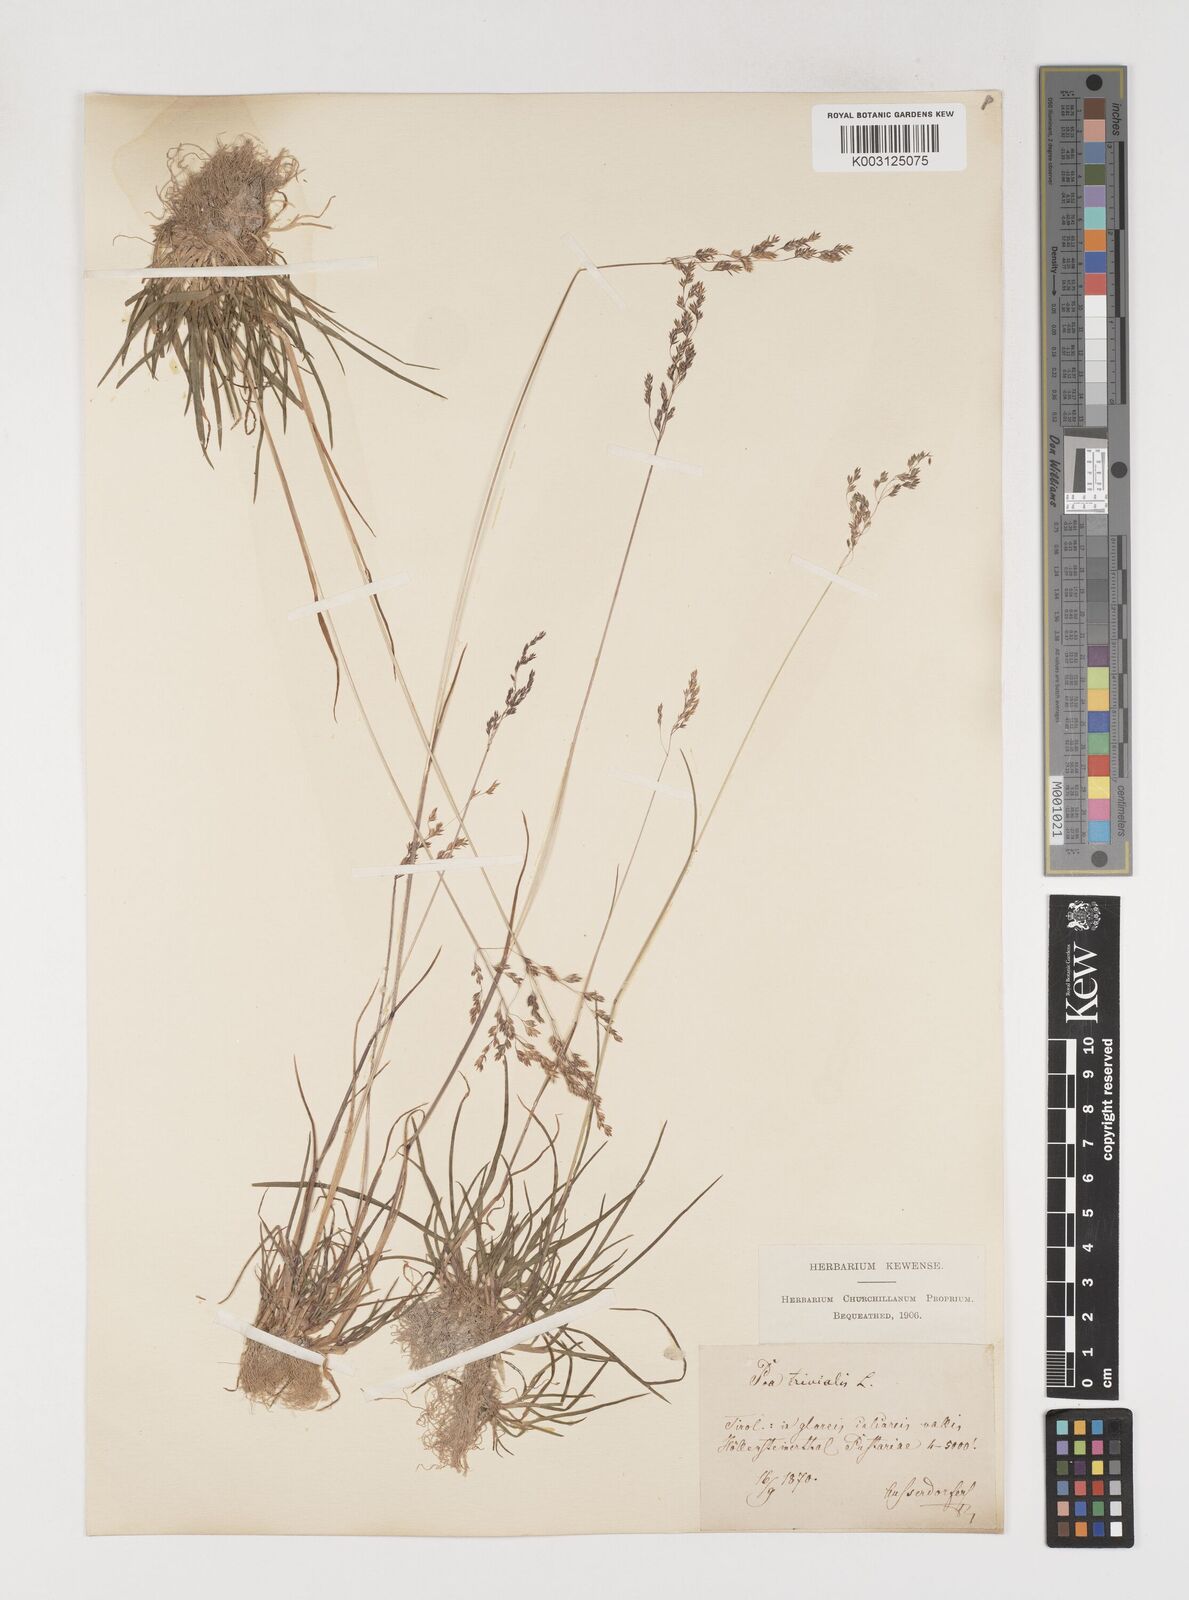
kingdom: Plantae
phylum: Tracheophyta
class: Liliopsida
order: Poales
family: Poaceae
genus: Poa
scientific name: Poa trivialis
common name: Rough bluegrass
